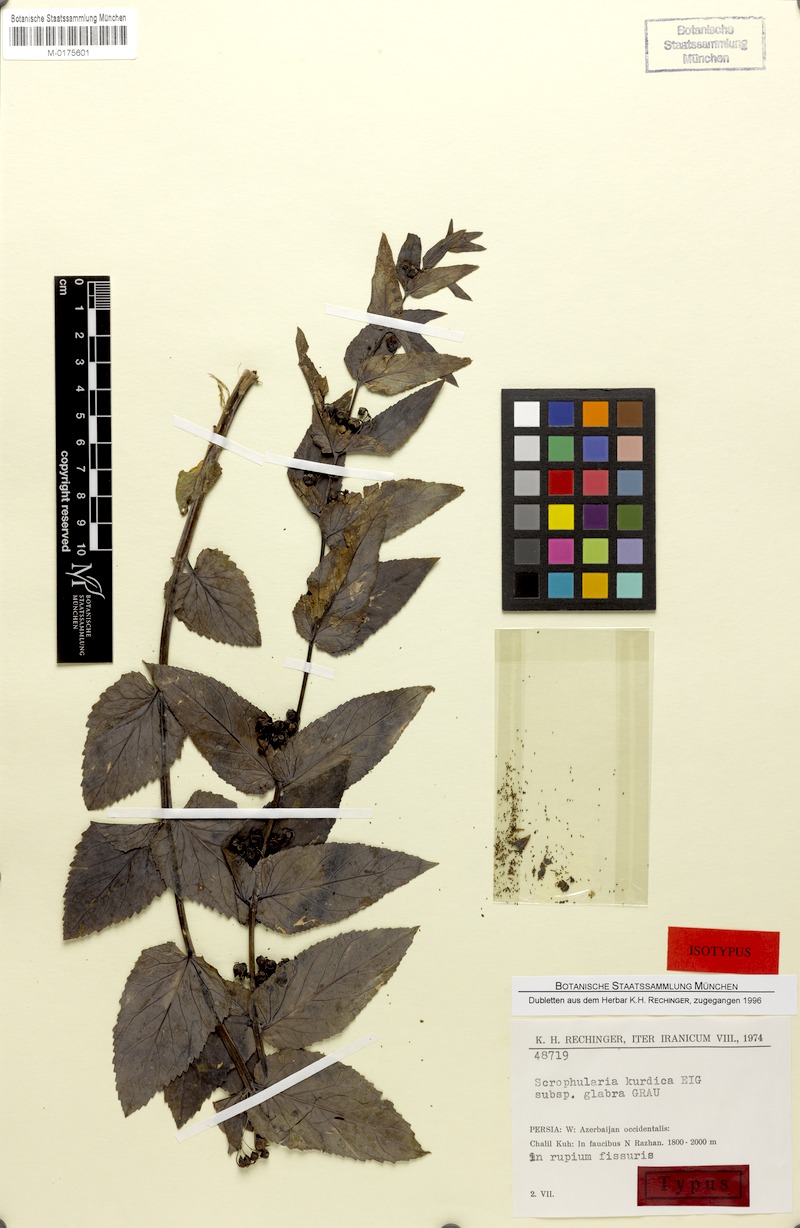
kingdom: Plantae
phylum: Tracheophyta
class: Magnoliopsida
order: Lamiales
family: Scrophulariaceae
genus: Scrophularia
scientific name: Scrophularia kurdica
